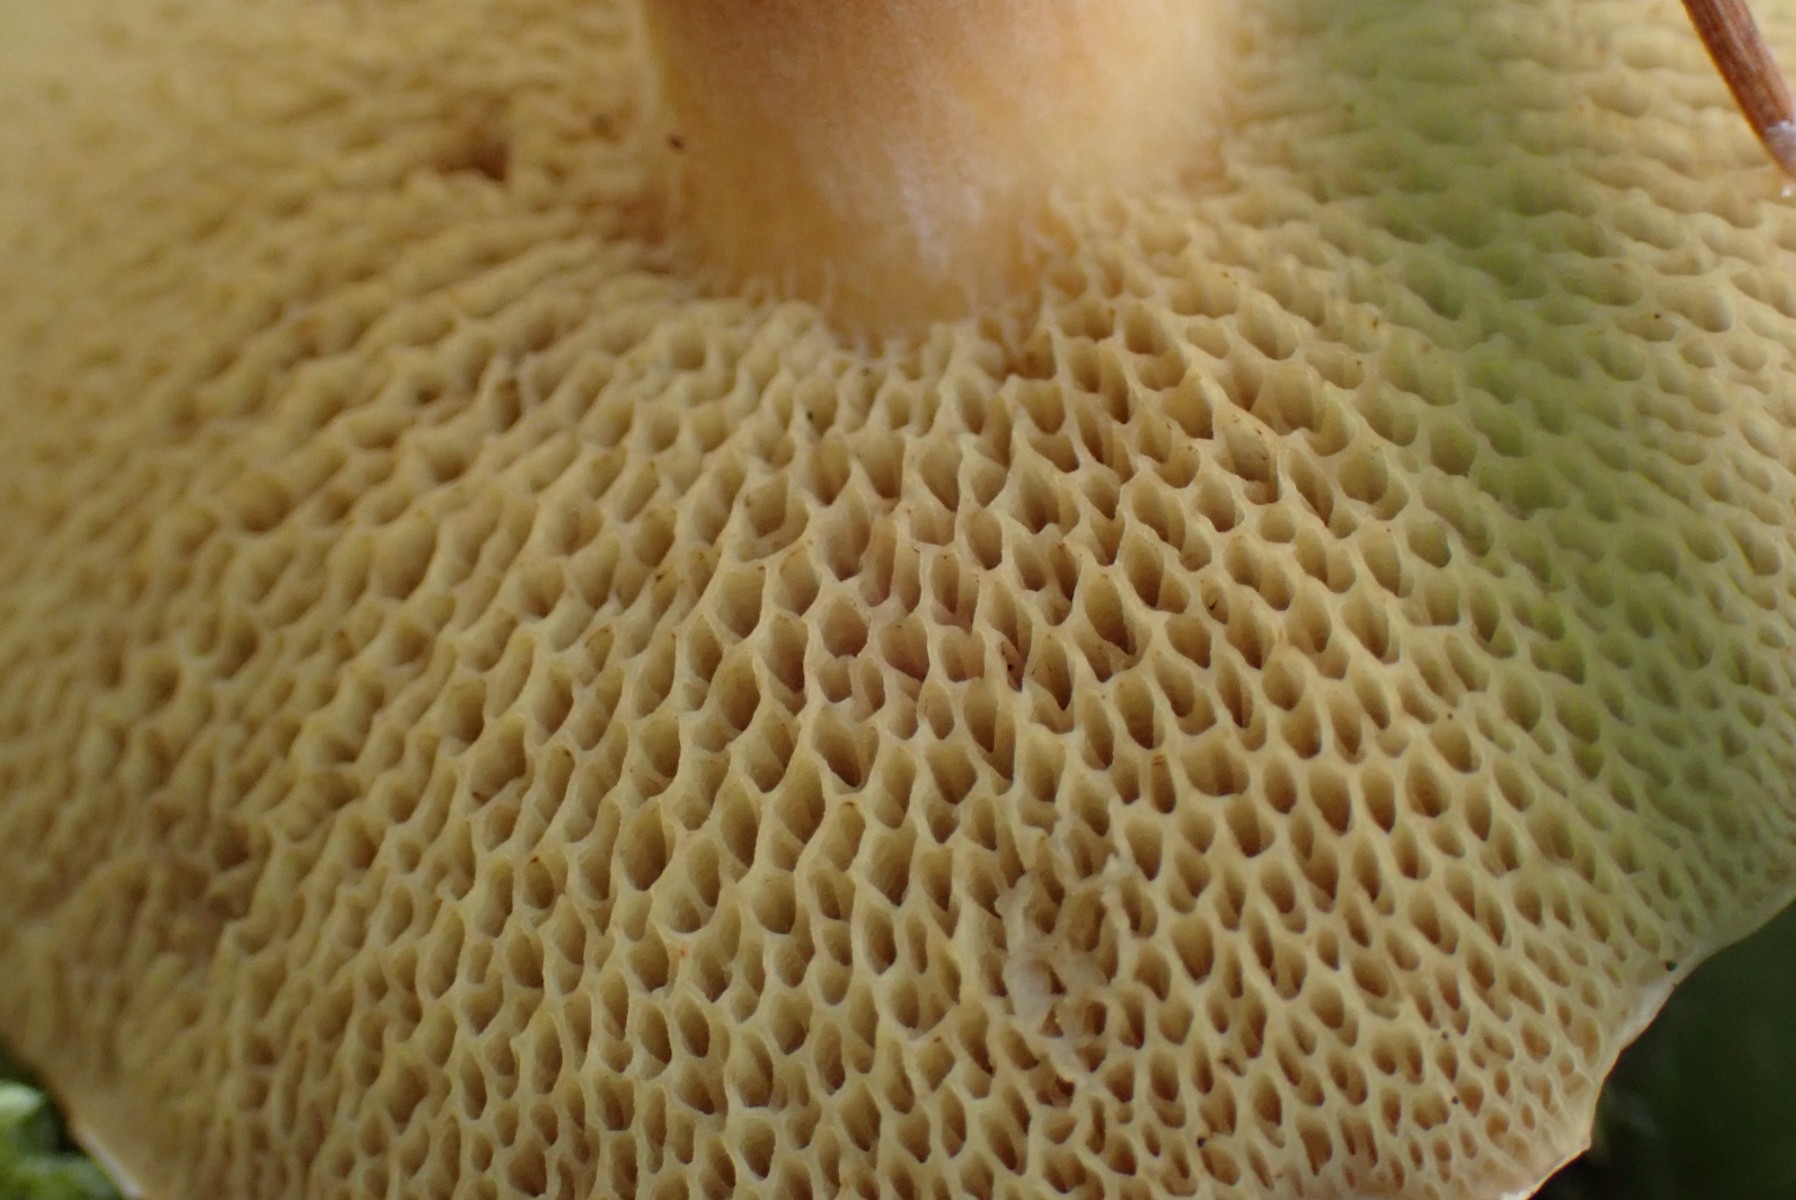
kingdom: Fungi
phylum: Basidiomycota
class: Agaricomycetes
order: Boletales
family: Suillaceae
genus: Suillus
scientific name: Suillus bovinus
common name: grovporet slimrørhat
